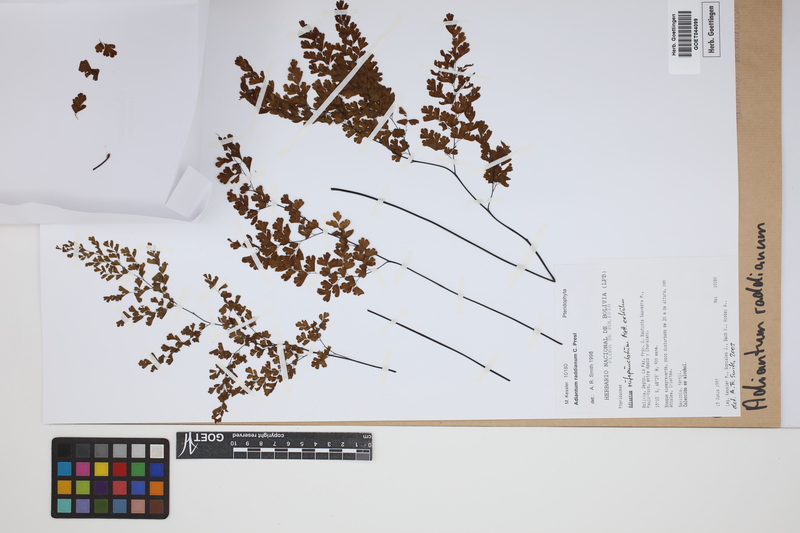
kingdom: Plantae
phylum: Tracheophyta
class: Polypodiopsida
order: Polypodiales
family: Pteridaceae
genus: Adiantum
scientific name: Adiantum raddianum
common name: Delta maidenhair fern
